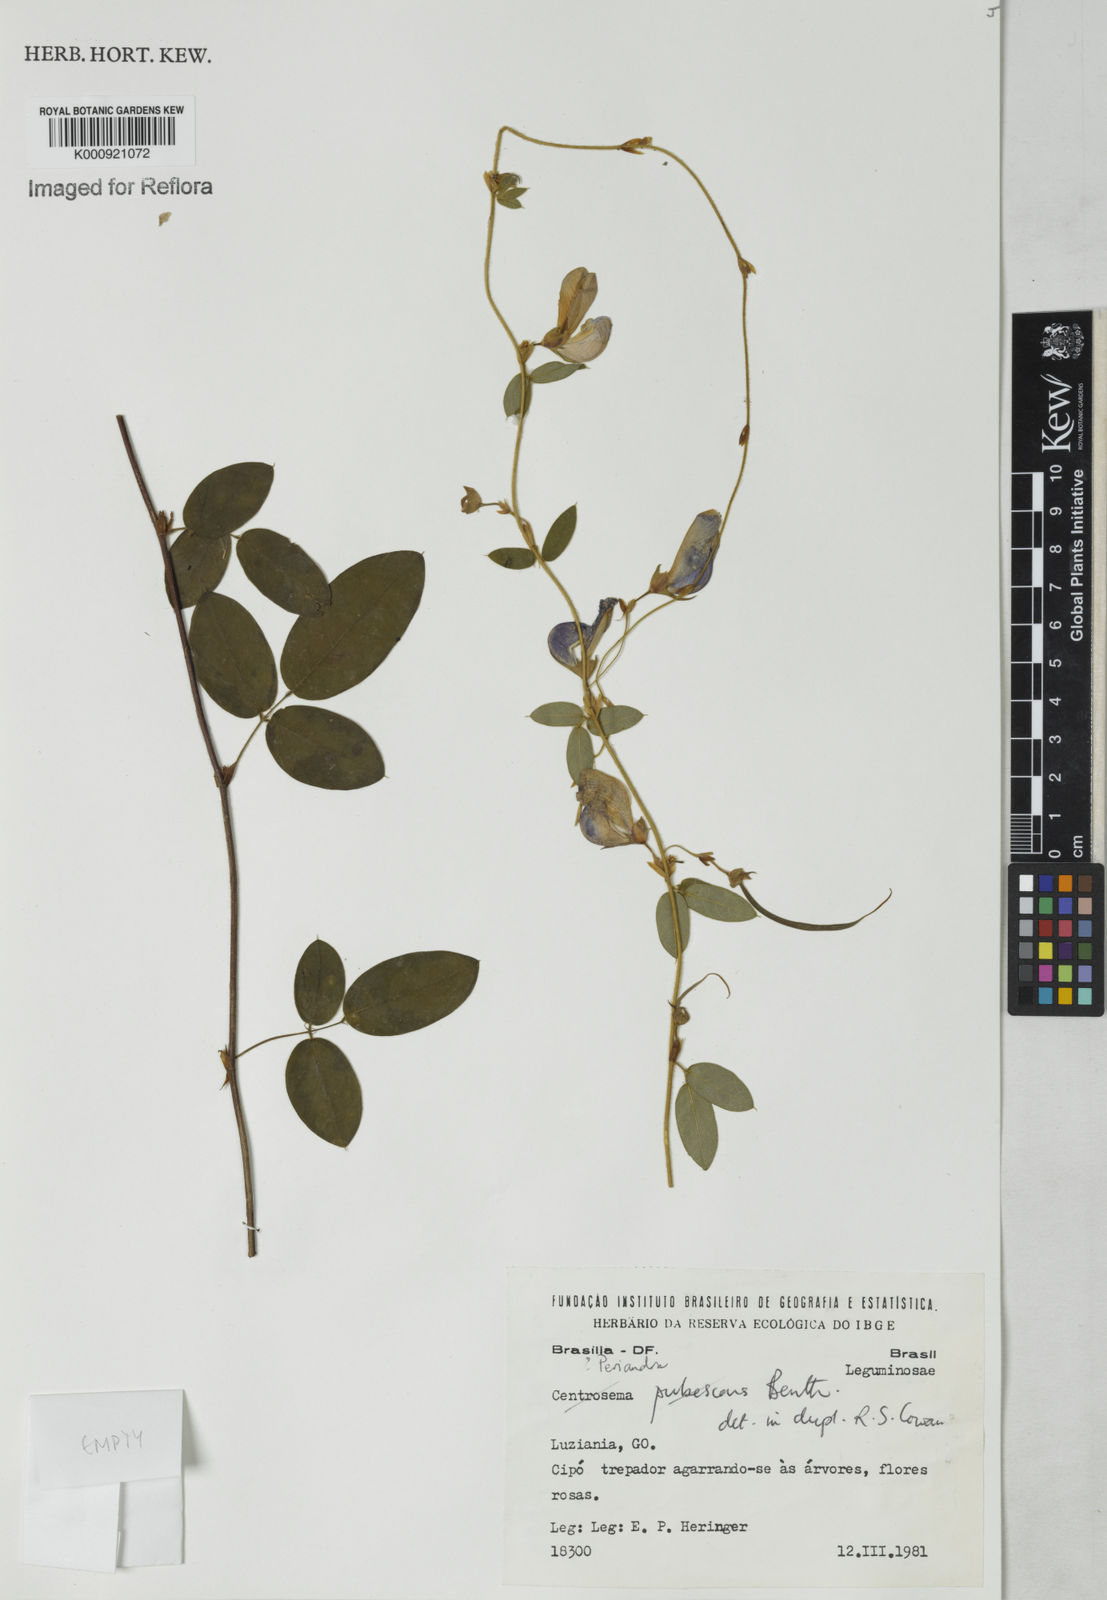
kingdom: Plantae
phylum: Tracheophyta
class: Magnoliopsida
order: Fabales
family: Fabaceae
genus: Periandra
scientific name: Periandra
